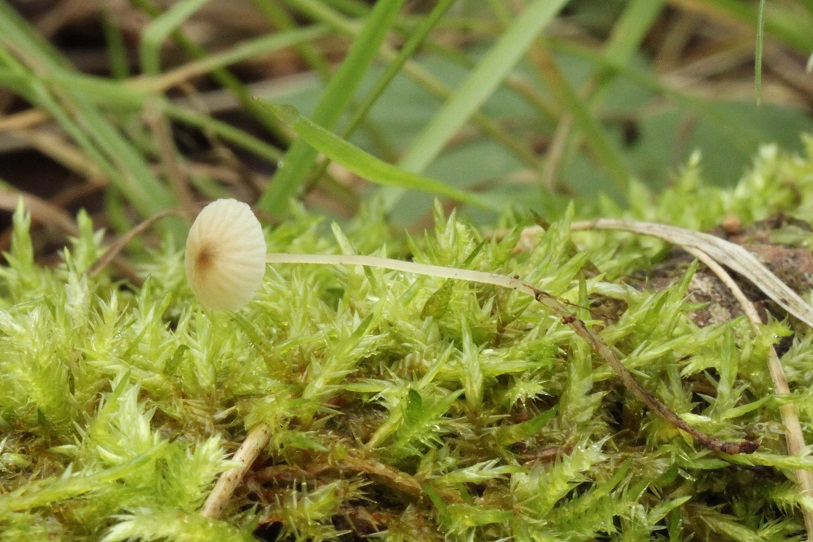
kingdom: Fungi
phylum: Basidiomycota
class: Agaricomycetes
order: Agaricales
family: Porotheleaceae
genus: Phloeomana
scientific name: Phloeomana speirea
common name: kvist-huesvamp
